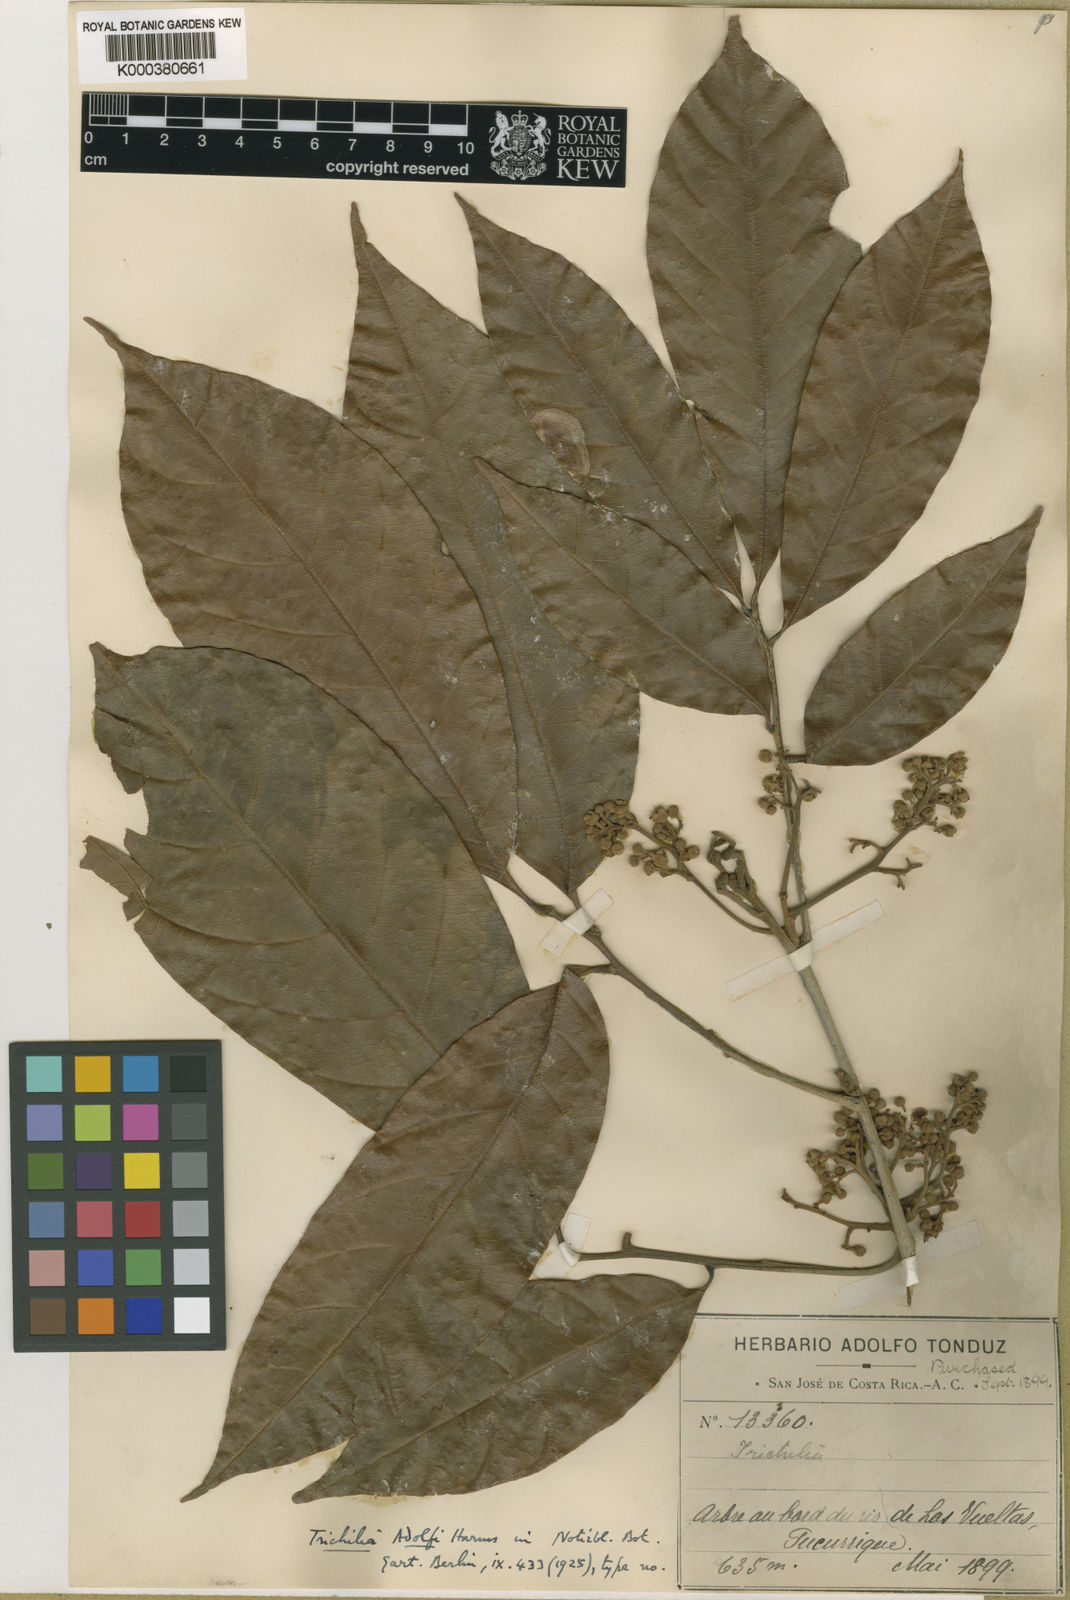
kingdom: Plantae
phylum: Tracheophyta
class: Magnoliopsida
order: Sapindales
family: Meliaceae
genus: Trichilia
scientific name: Trichilia adolfi
